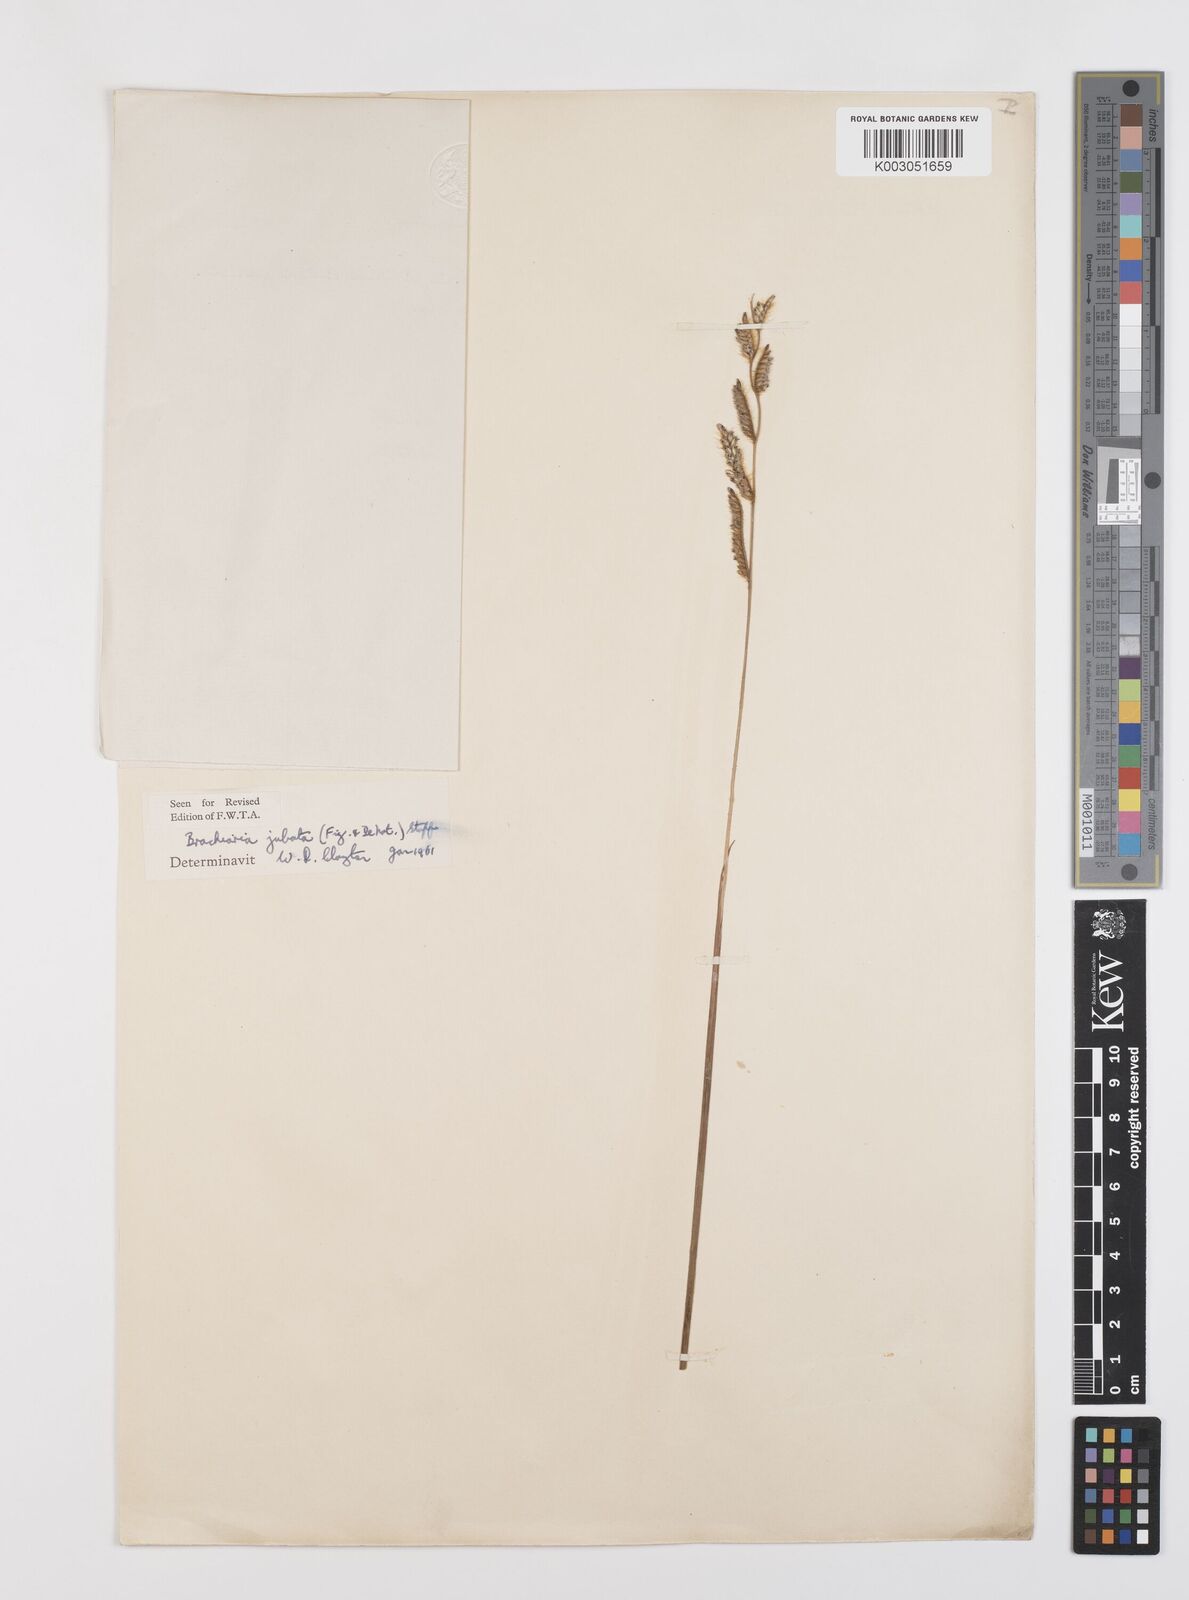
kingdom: Plantae
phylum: Tracheophyta
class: Liliopsida
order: Poales
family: Poaceae
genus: Urochloa
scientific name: Urochloa jubata
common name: Buffalograss
